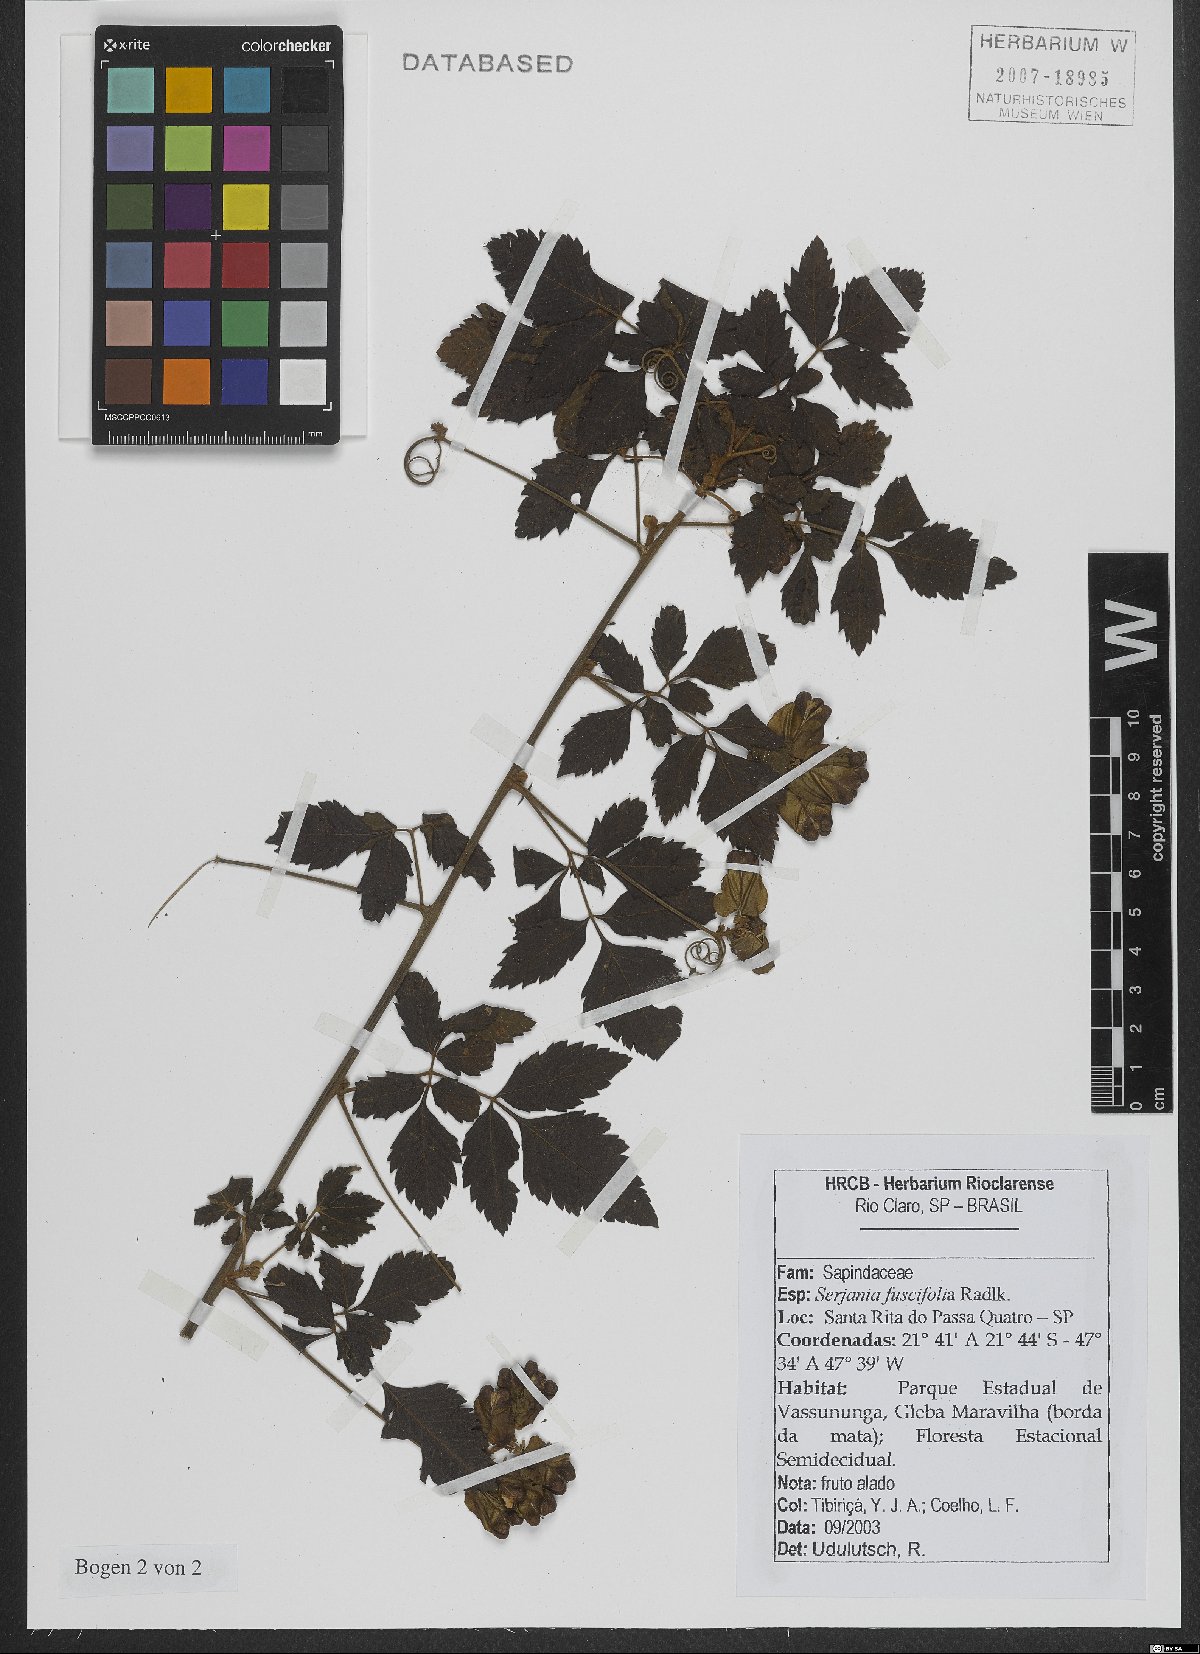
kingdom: Plantae
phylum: Tracheophyta
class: Magnoliopsida
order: Sapindales
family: Sapindaceae
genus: Serjania
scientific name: Serjania fuscifolia
